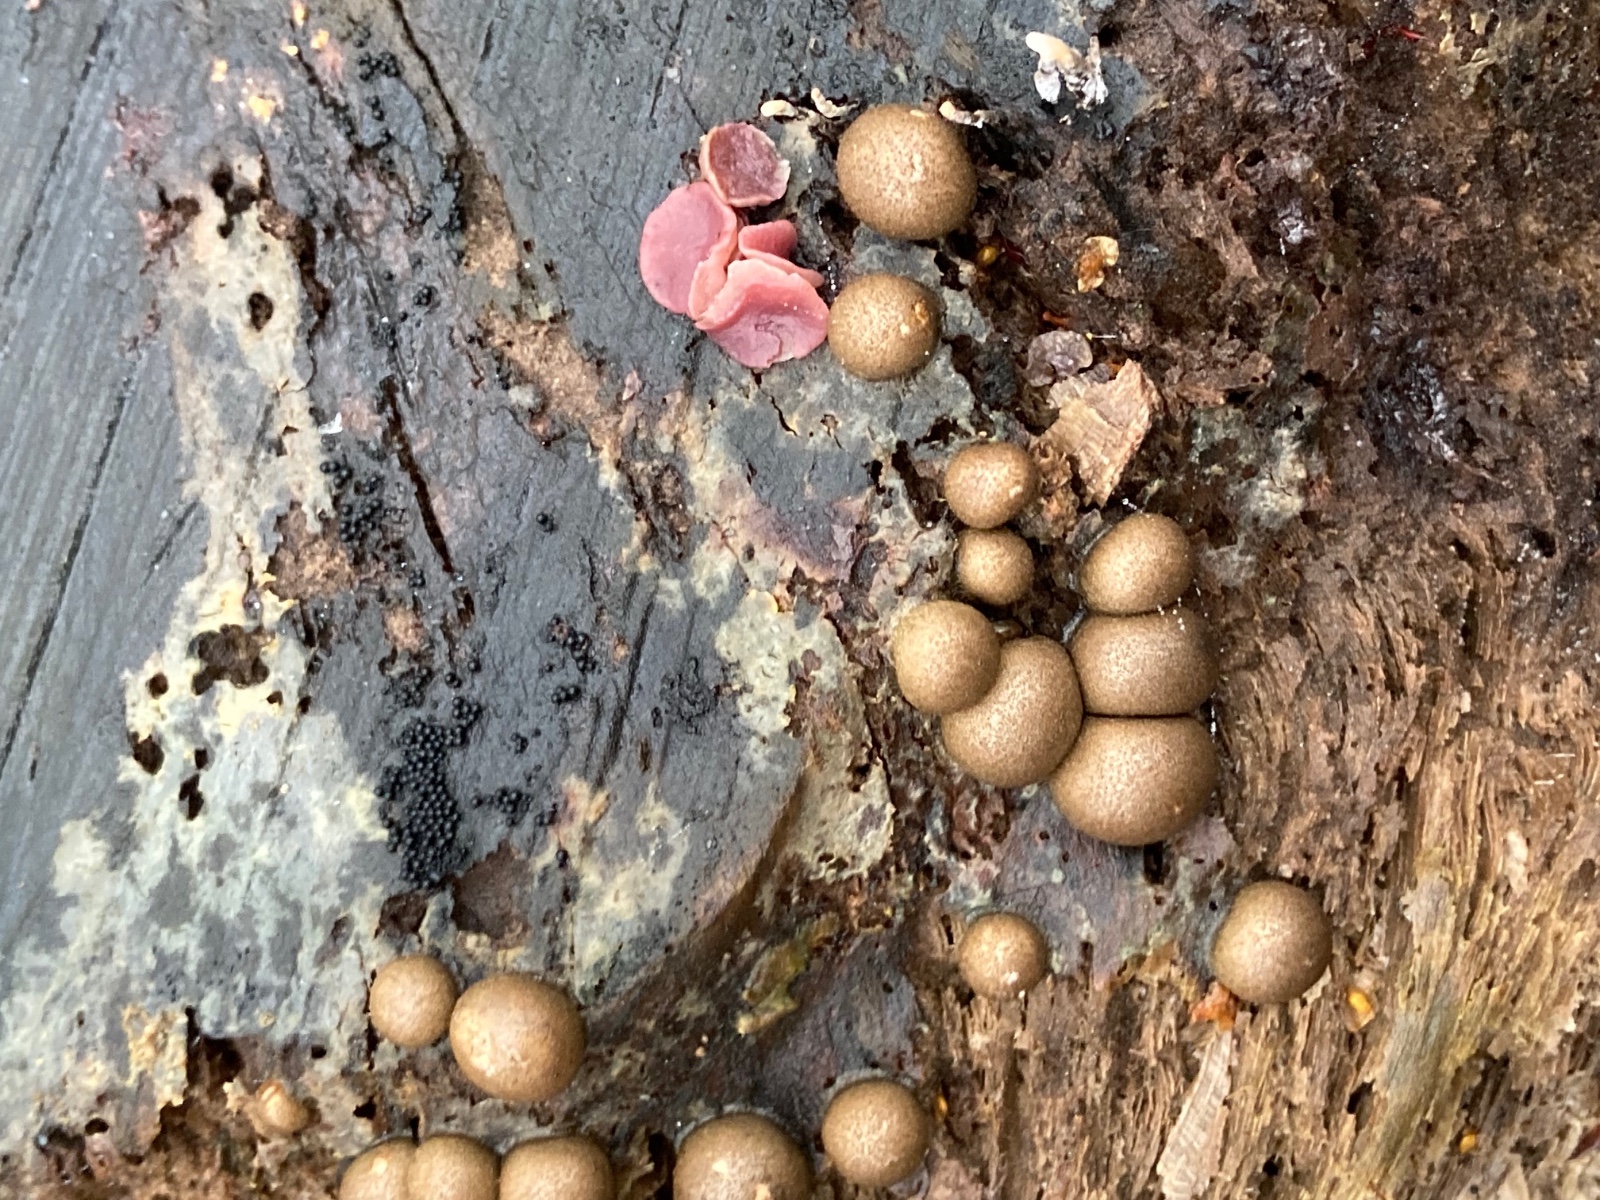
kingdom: Protozoa
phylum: Mycetozoa
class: Myxomycetes
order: Cribrariales
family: Tubiferaceae
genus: Lycogala
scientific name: Lycogala epidendrum
